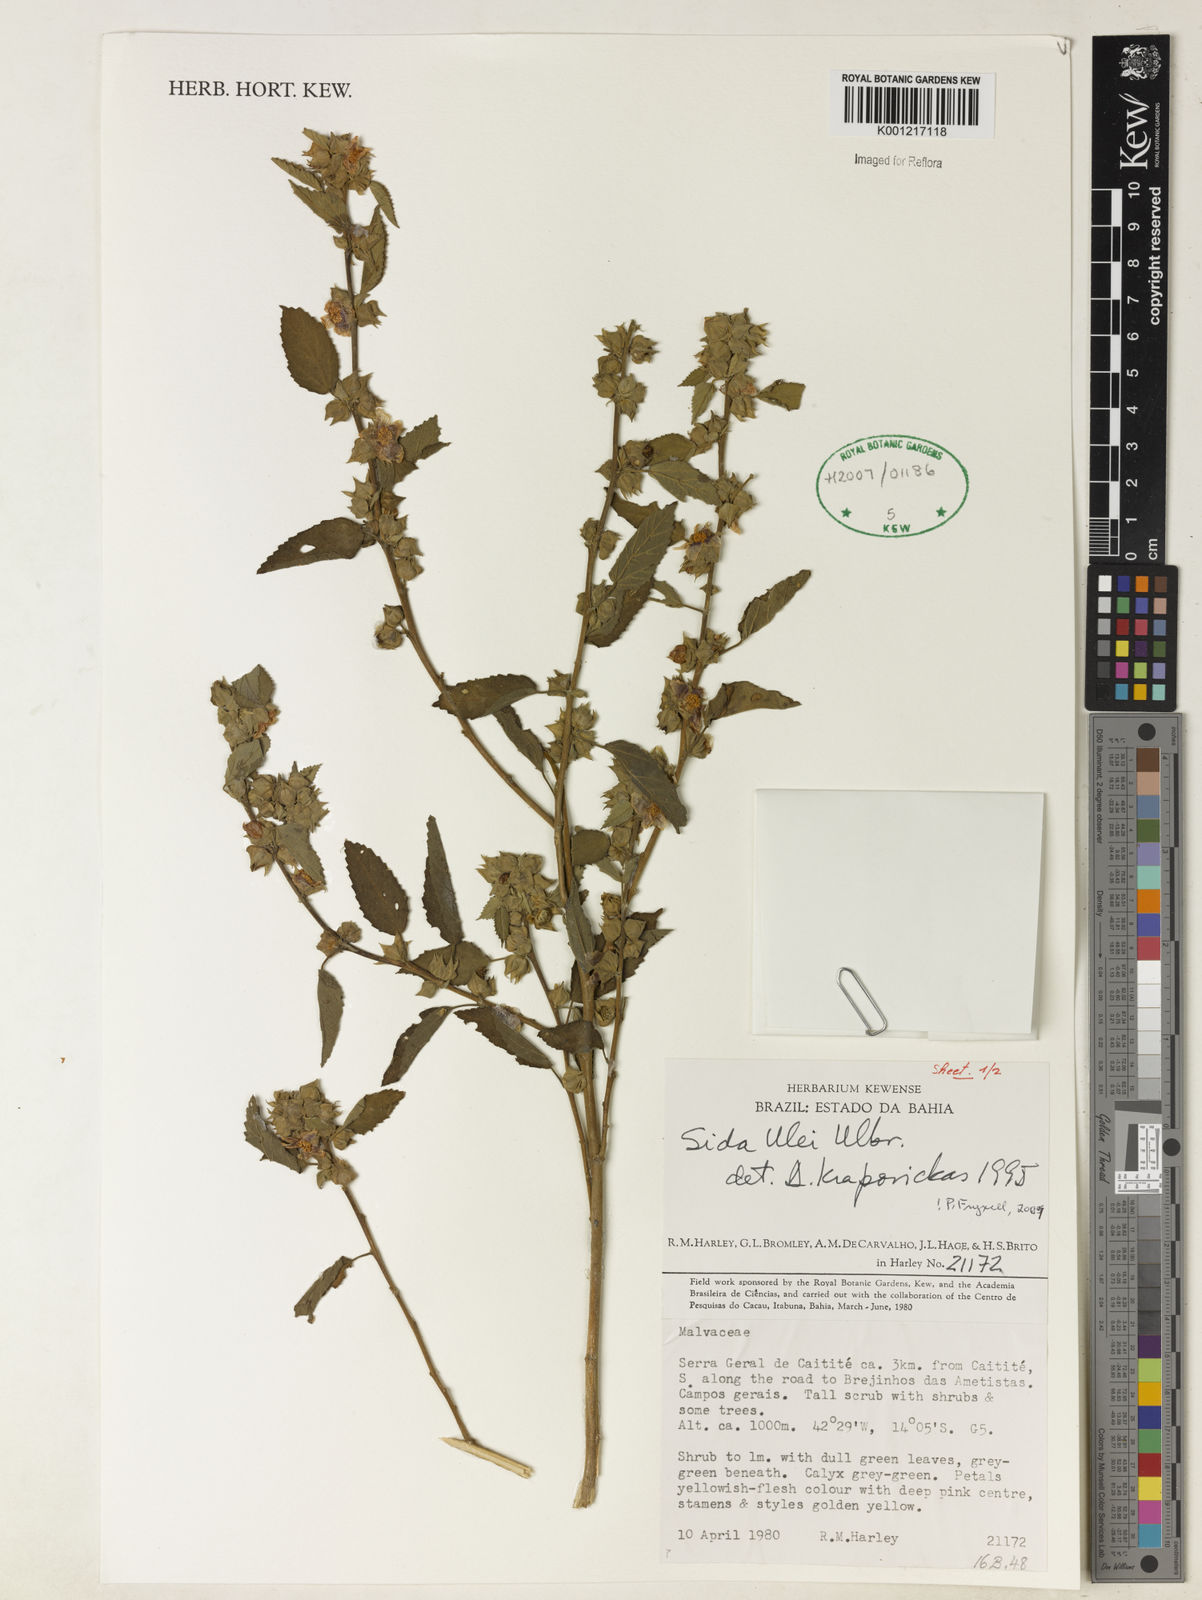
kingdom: Plantae
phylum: Tracheophyta
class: Magnoliopsida
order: Malvales
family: Malvaceae
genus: Sida
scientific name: Sida ulei
